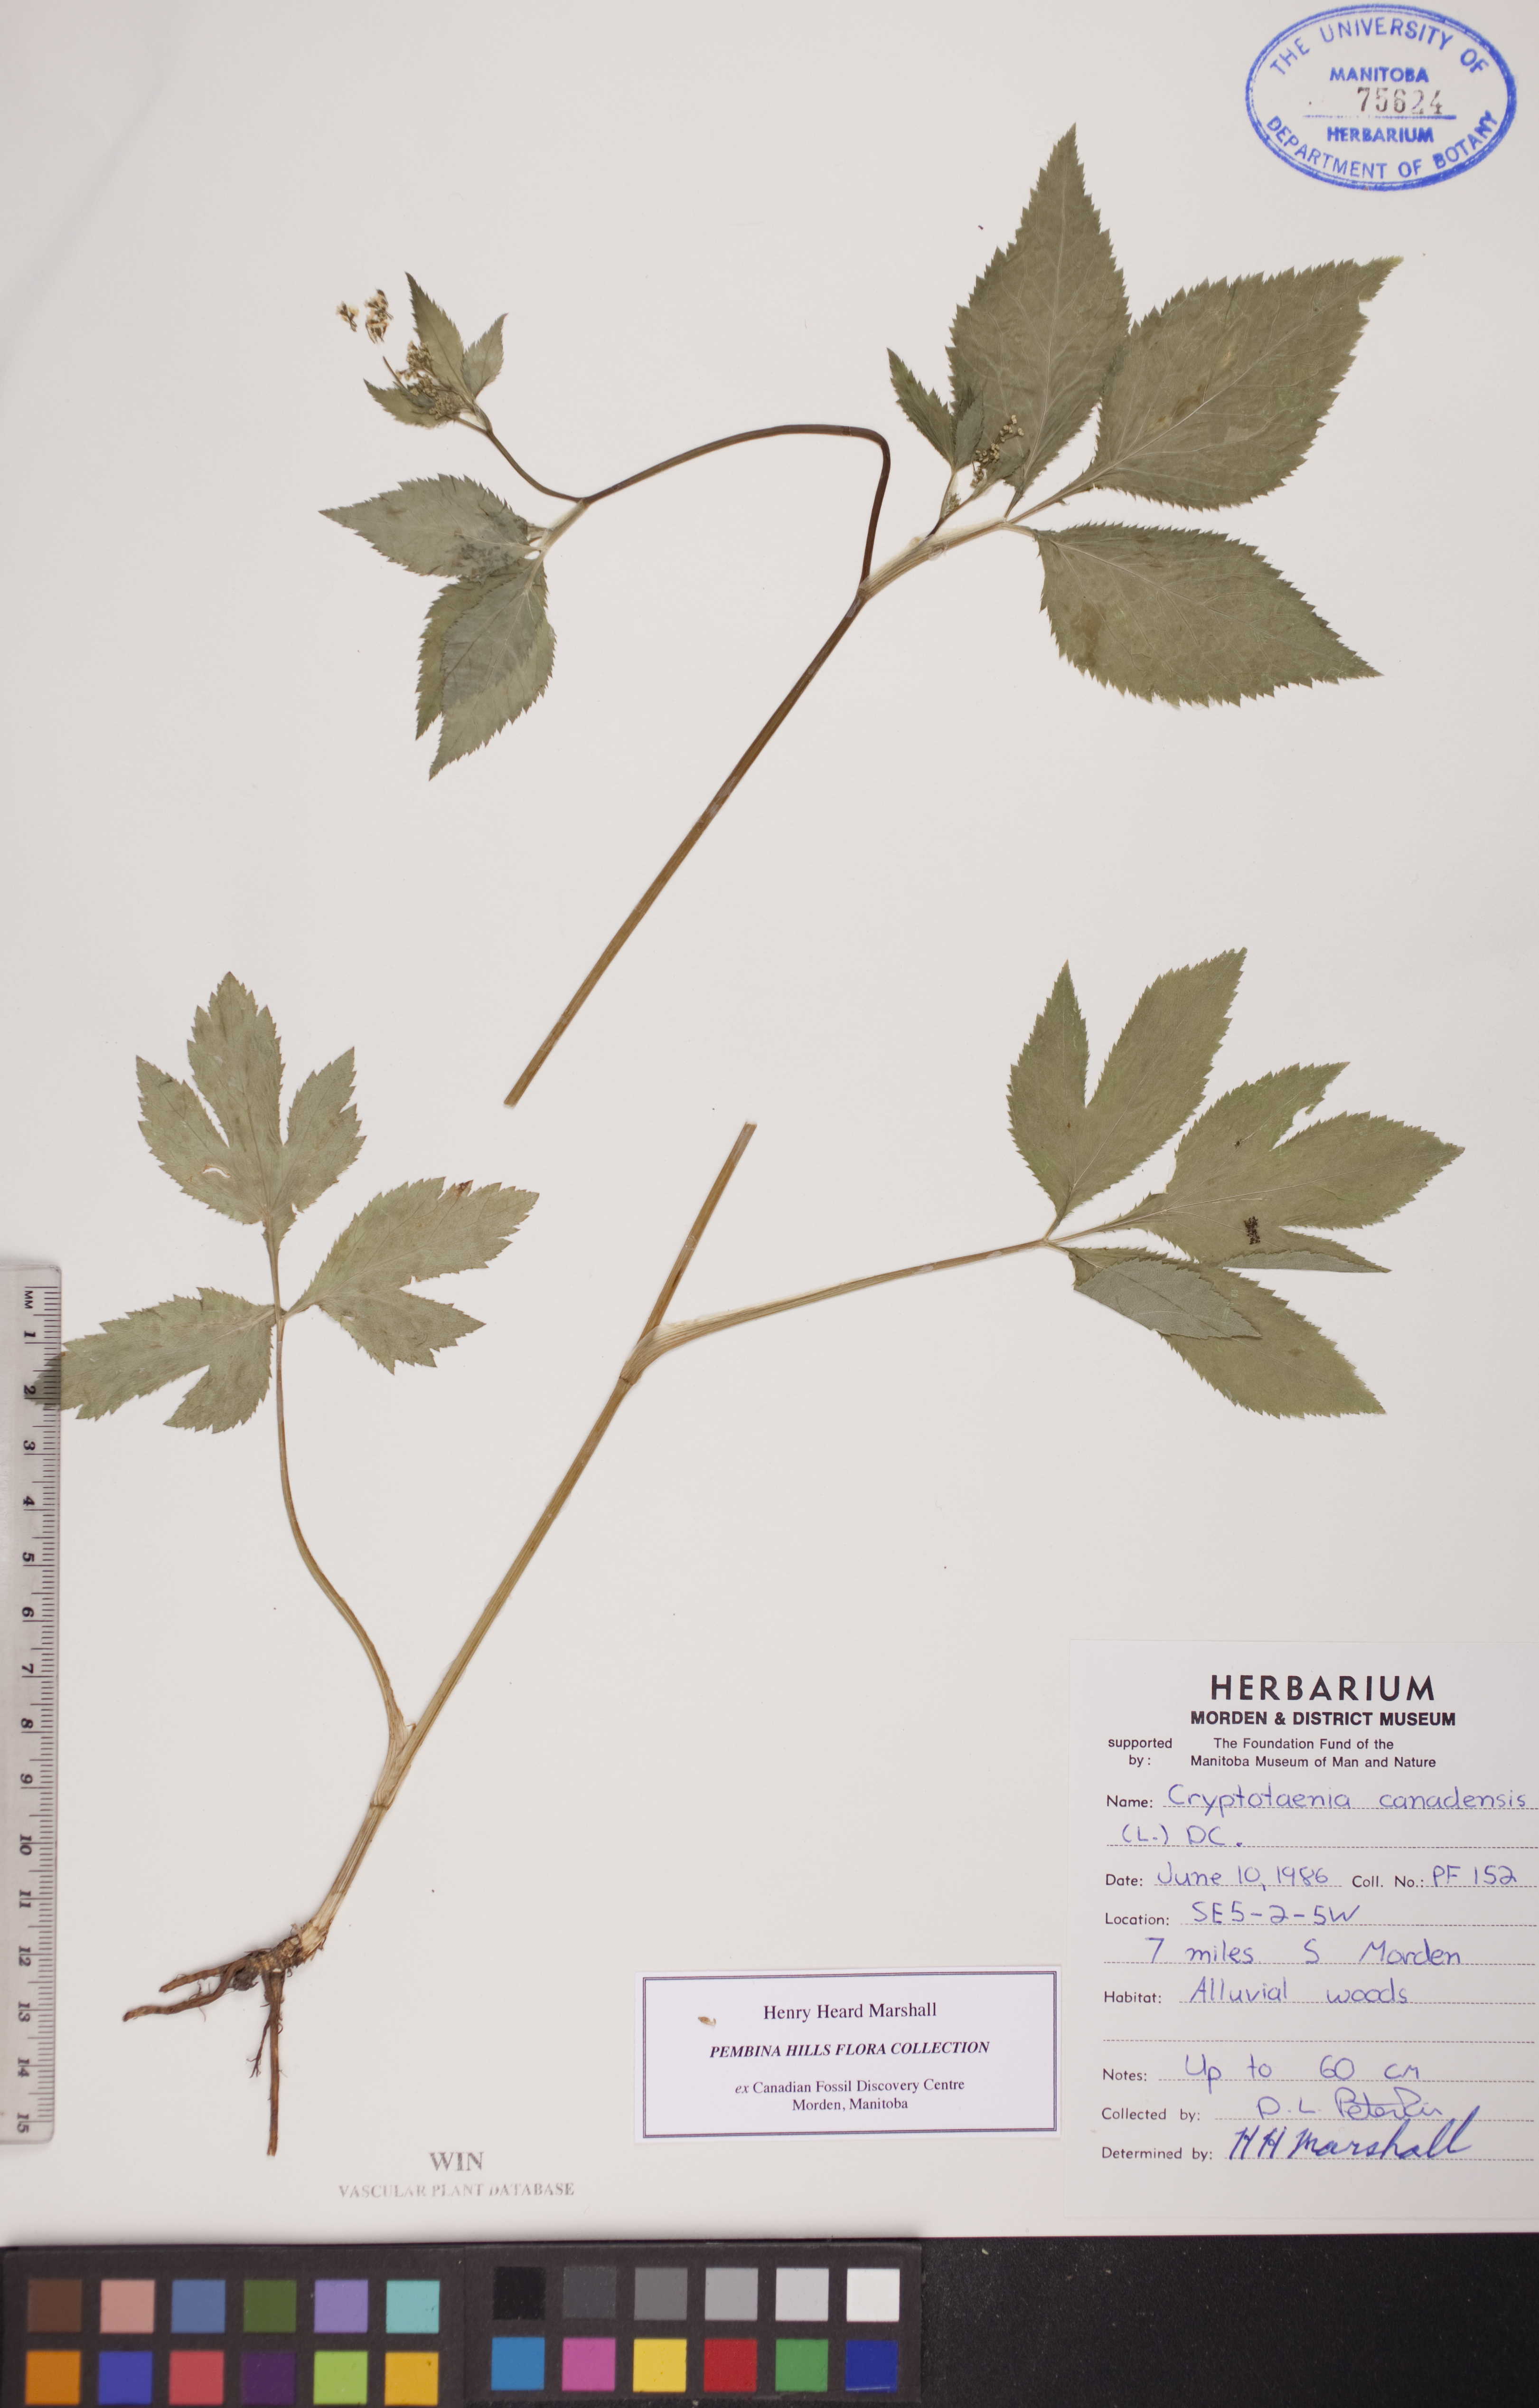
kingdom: Plantae
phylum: Tracheophyta
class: Magnoliopsida
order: Apiales
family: Apiaceae
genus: Cryptotaenia
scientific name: Cryptotaenia canadensis
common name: Honewort
